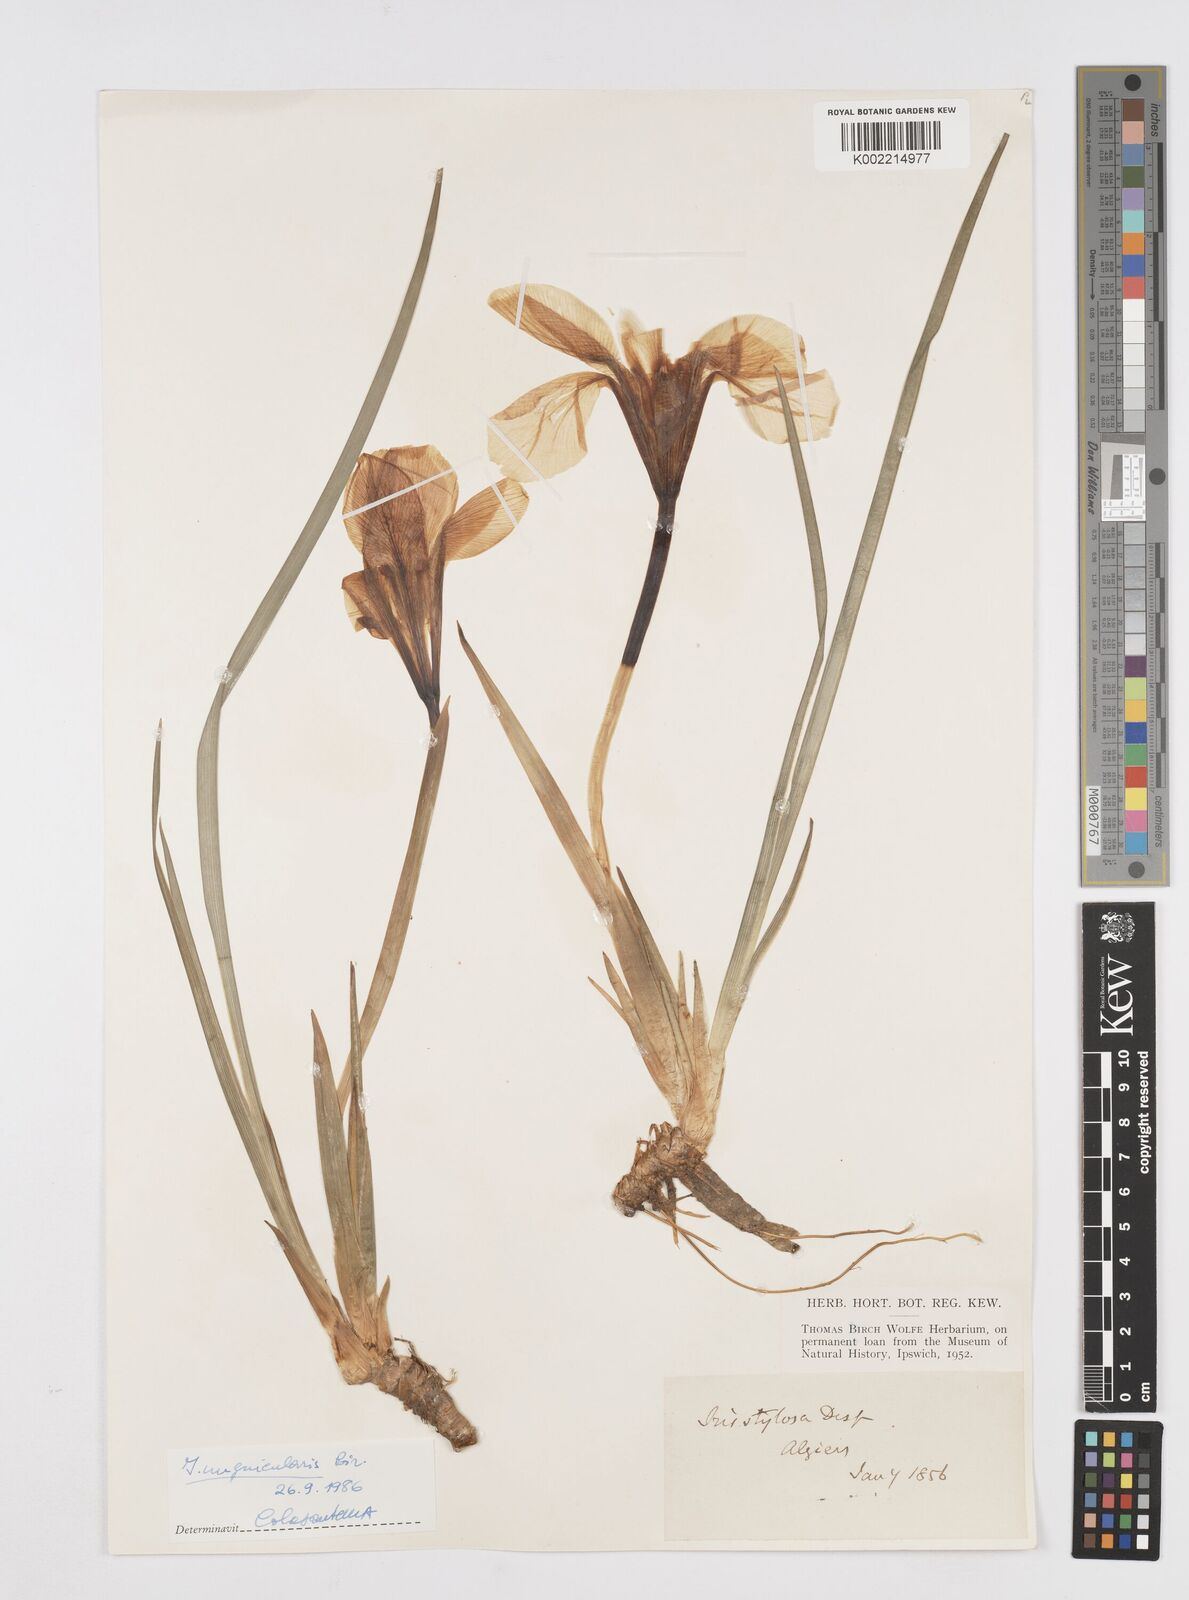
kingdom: Plantae
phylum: Tracheophyta
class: Liliopsida
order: Asparagales
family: Iridaceae
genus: Iris
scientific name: Iris unguicularis
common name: Algerian iris
